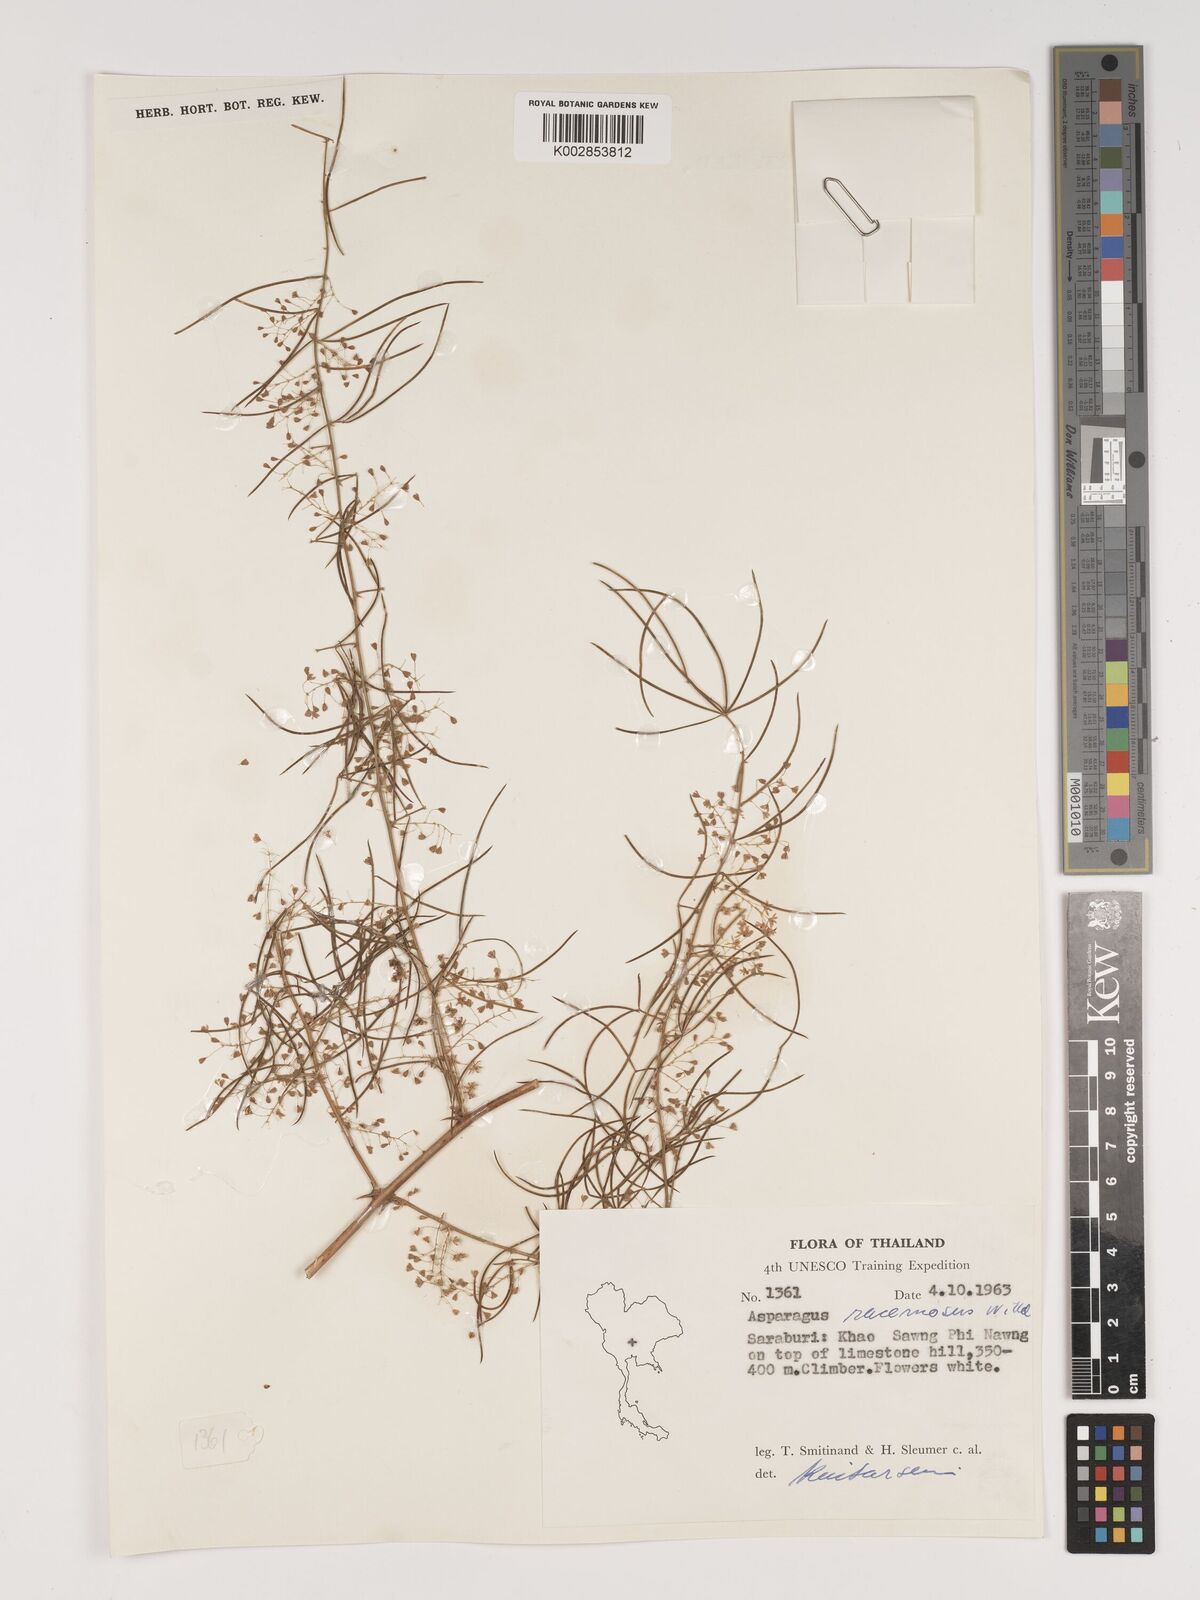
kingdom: Plantae
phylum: Tracheophyta
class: Liliopsida
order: Asparagales
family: Asparagaceae
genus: Asparagus
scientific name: Asparagus racemosus
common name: Asparagus-fern
